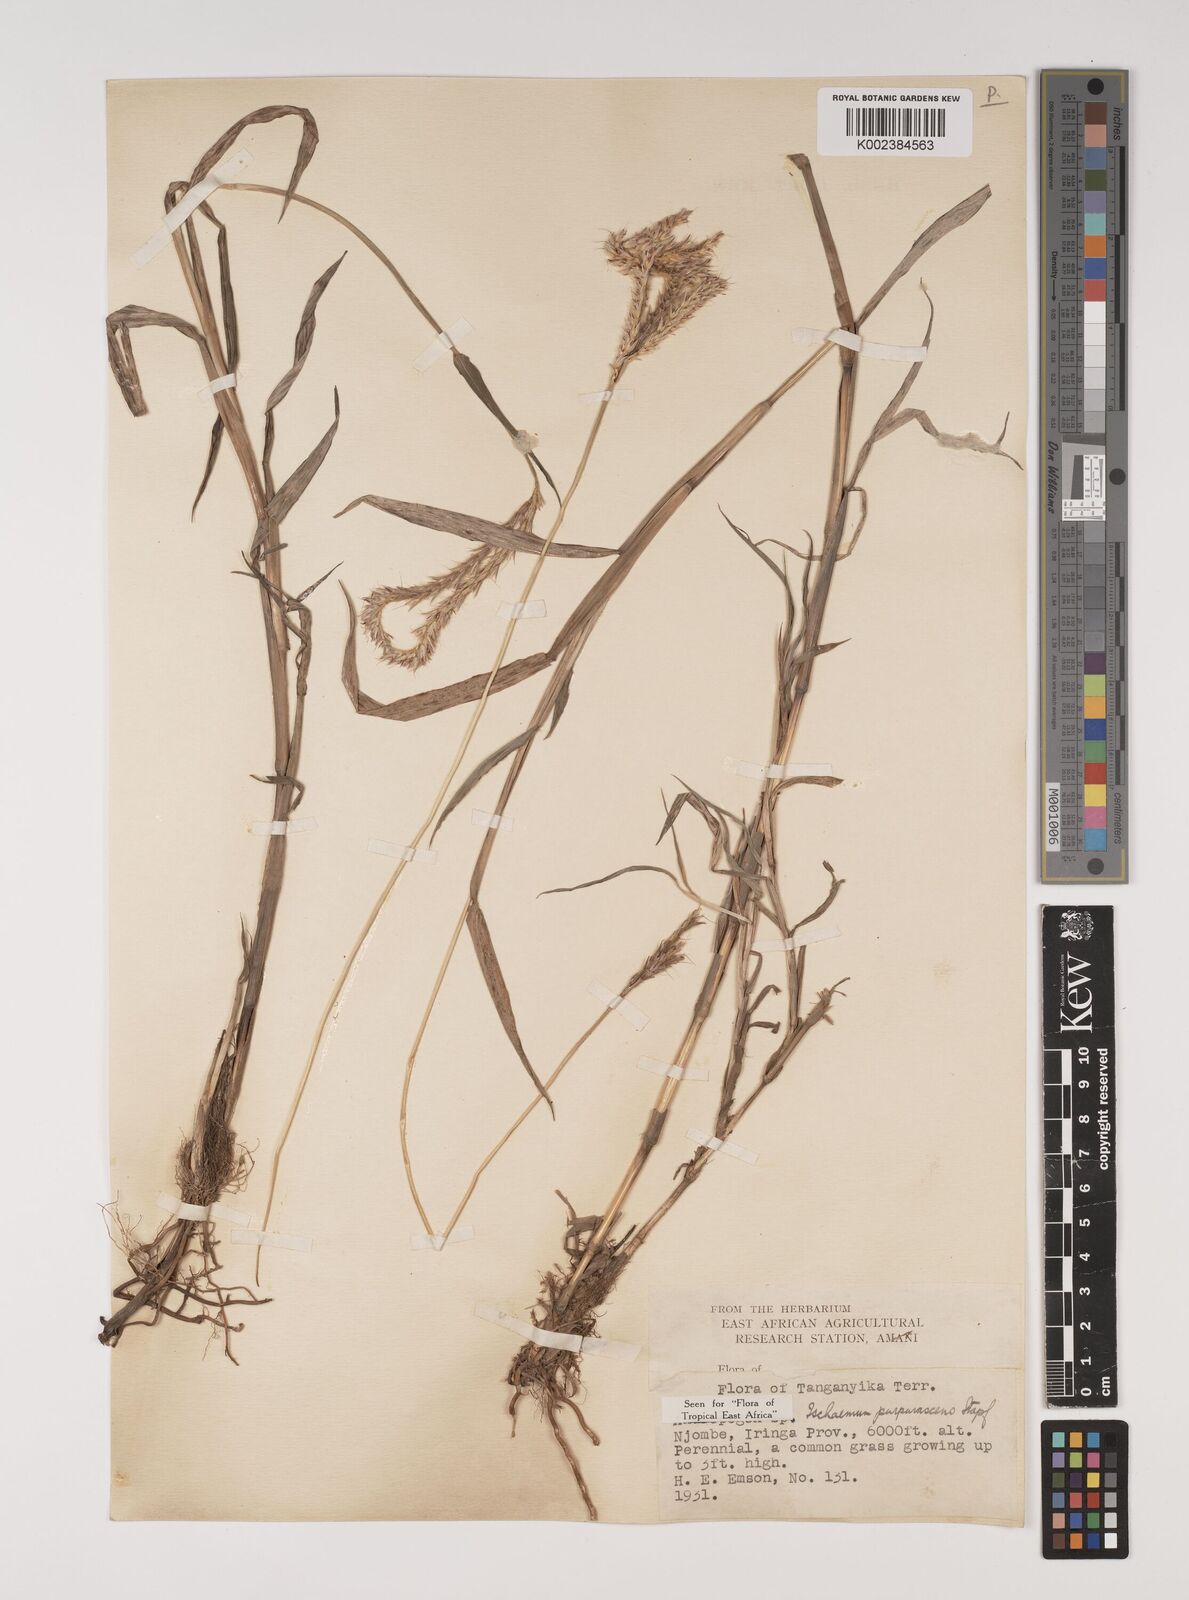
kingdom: Plantae
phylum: Tracheophyta
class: Liliopsida
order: Poales
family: Poaceae
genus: Ischaemum
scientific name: Ischaemum polystachyum
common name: Paddle grass
